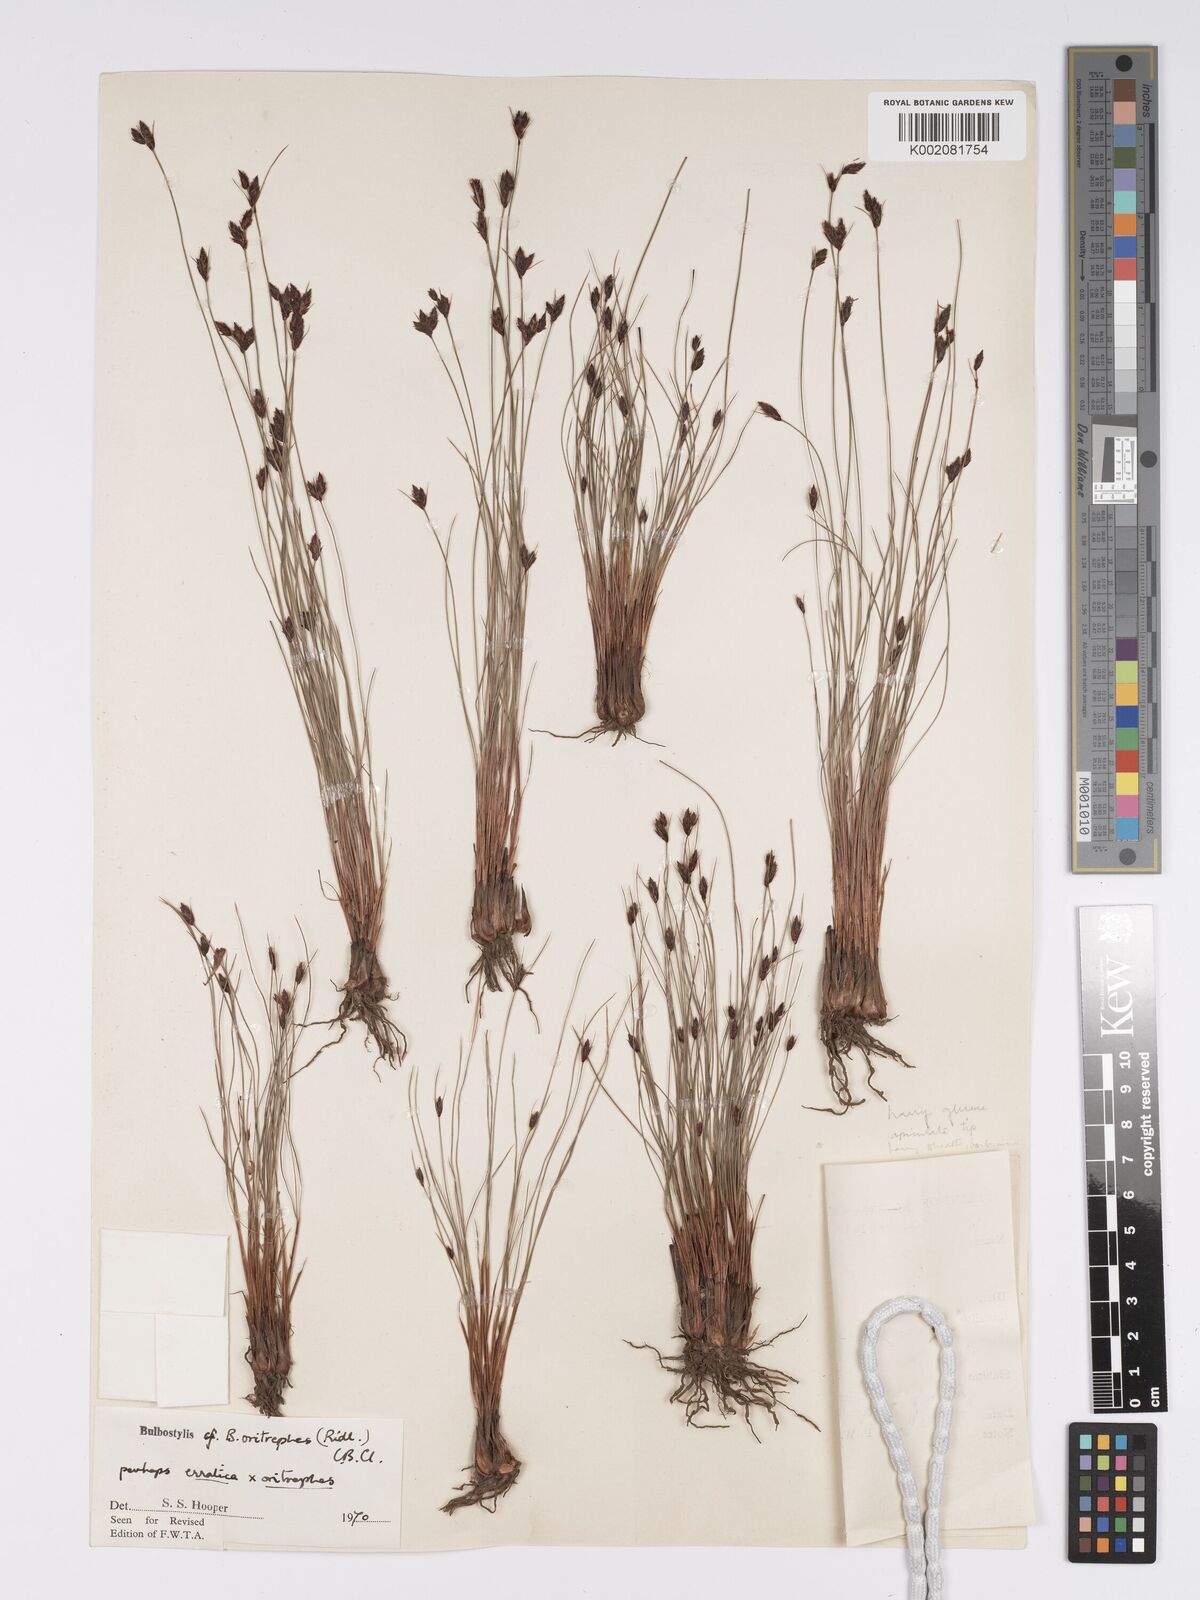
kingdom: Plantae
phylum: Tracheophyta
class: Liliopsida
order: Poales
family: Cyperaceae
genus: Bulbostylis
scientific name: Bulbostylis oritrephes
